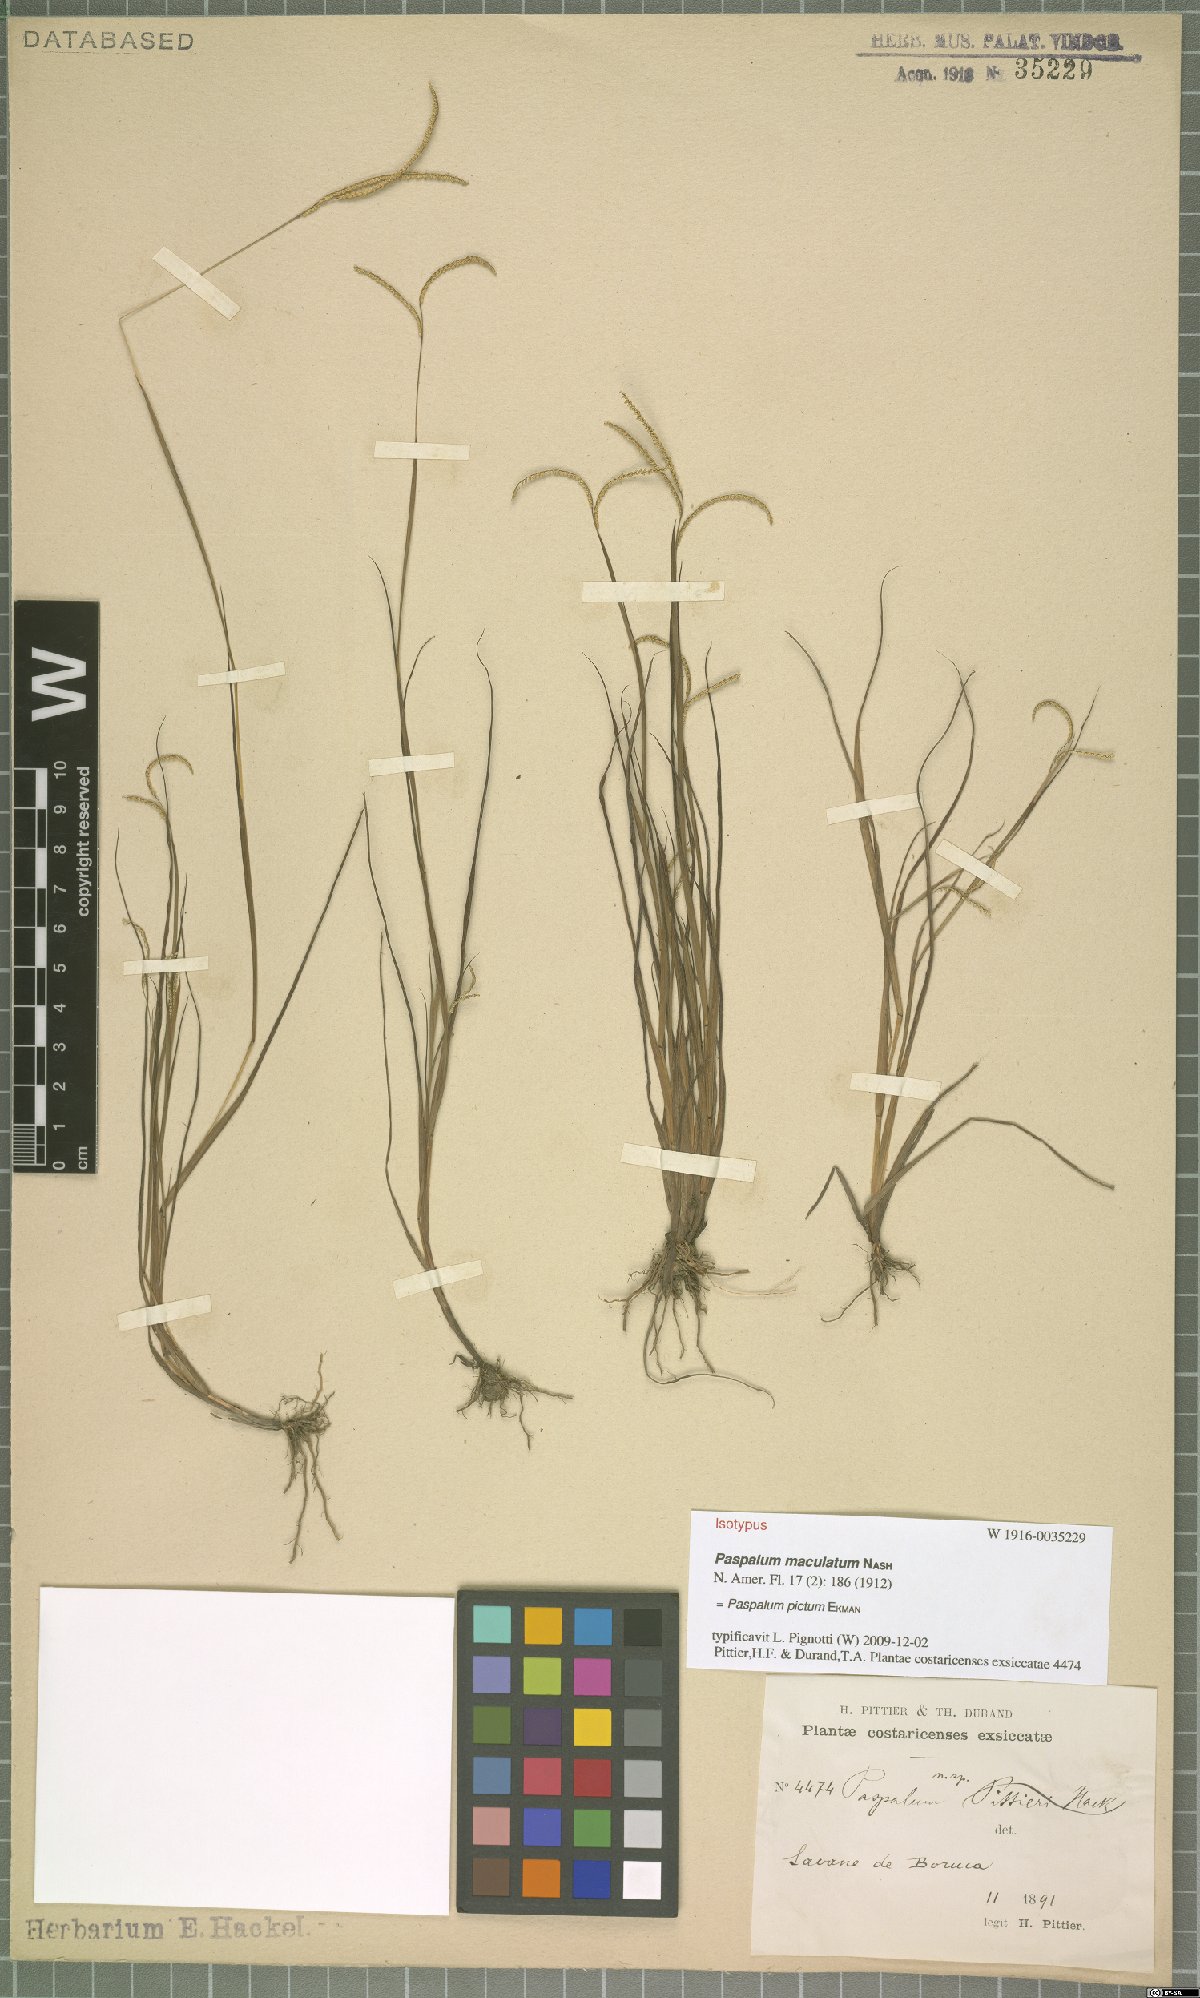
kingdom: Plantae
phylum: Tracheophyta
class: Liliopsida
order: Poales
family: Poaceae
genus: Paspalum
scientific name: Paspalum pictum
